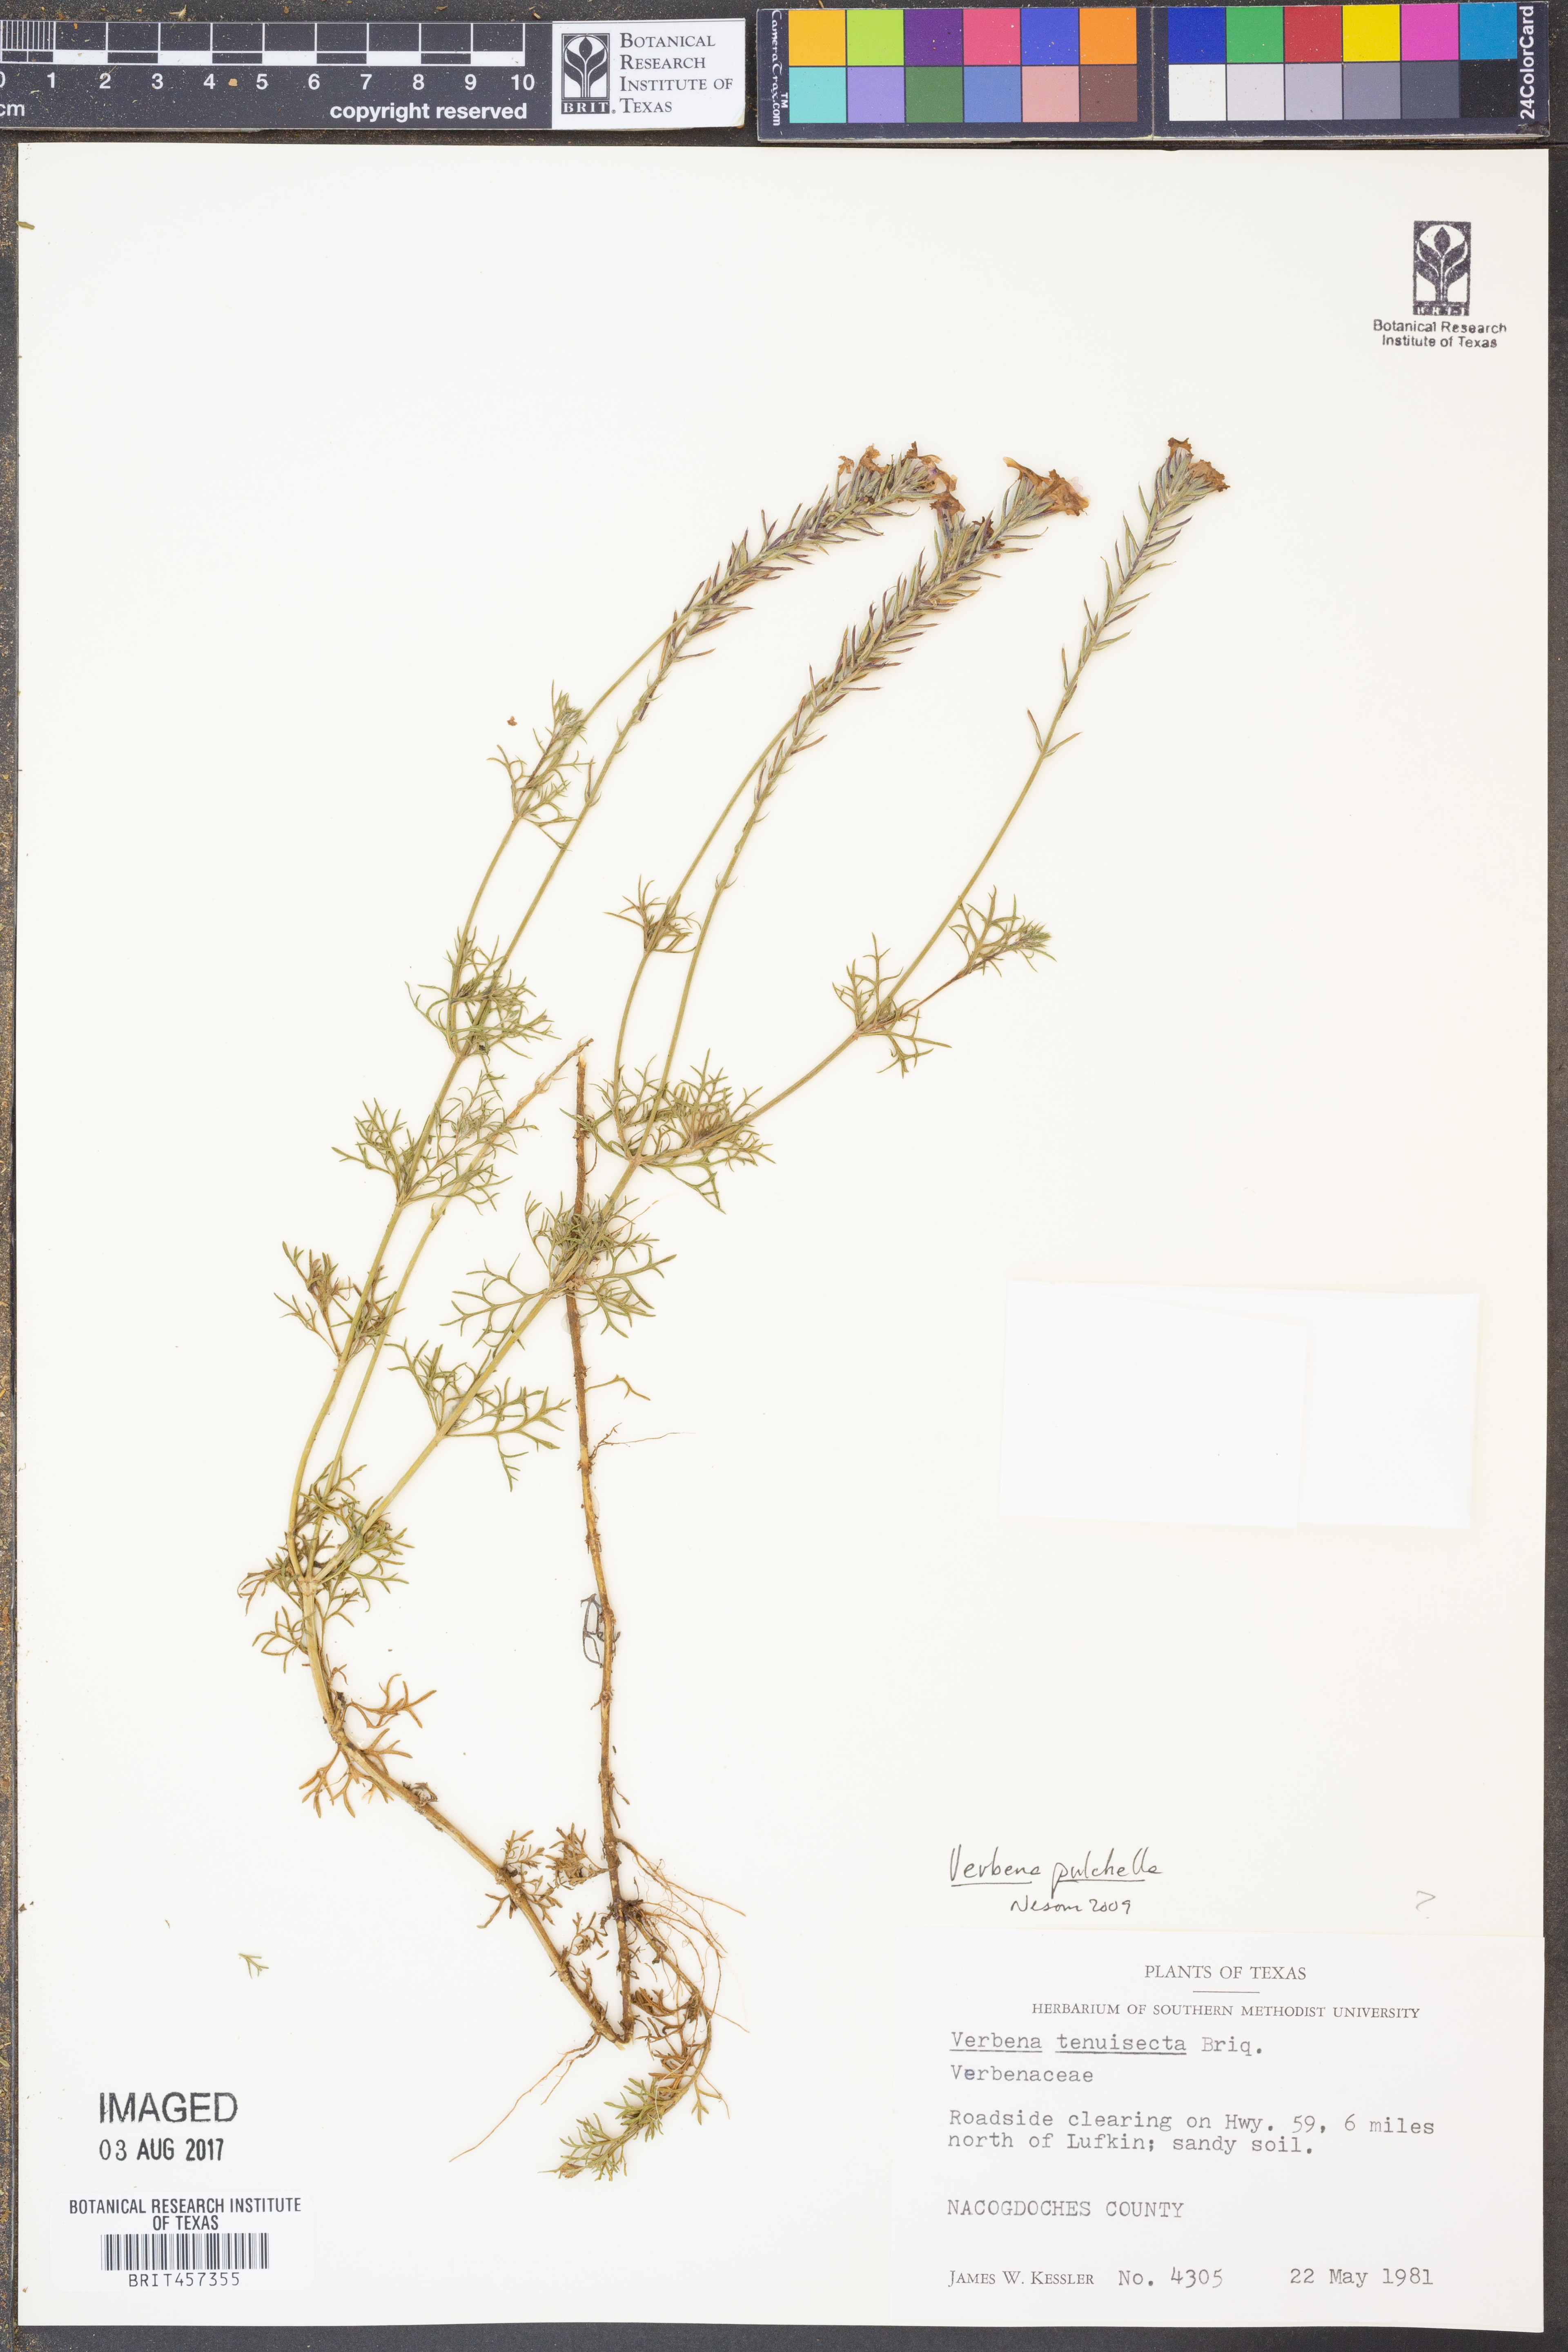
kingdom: Plantae
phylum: Tracheophyta
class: Magnoliopsida
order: Lamiales
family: Verbenaceae
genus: Verbena
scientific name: Verbena tenera
